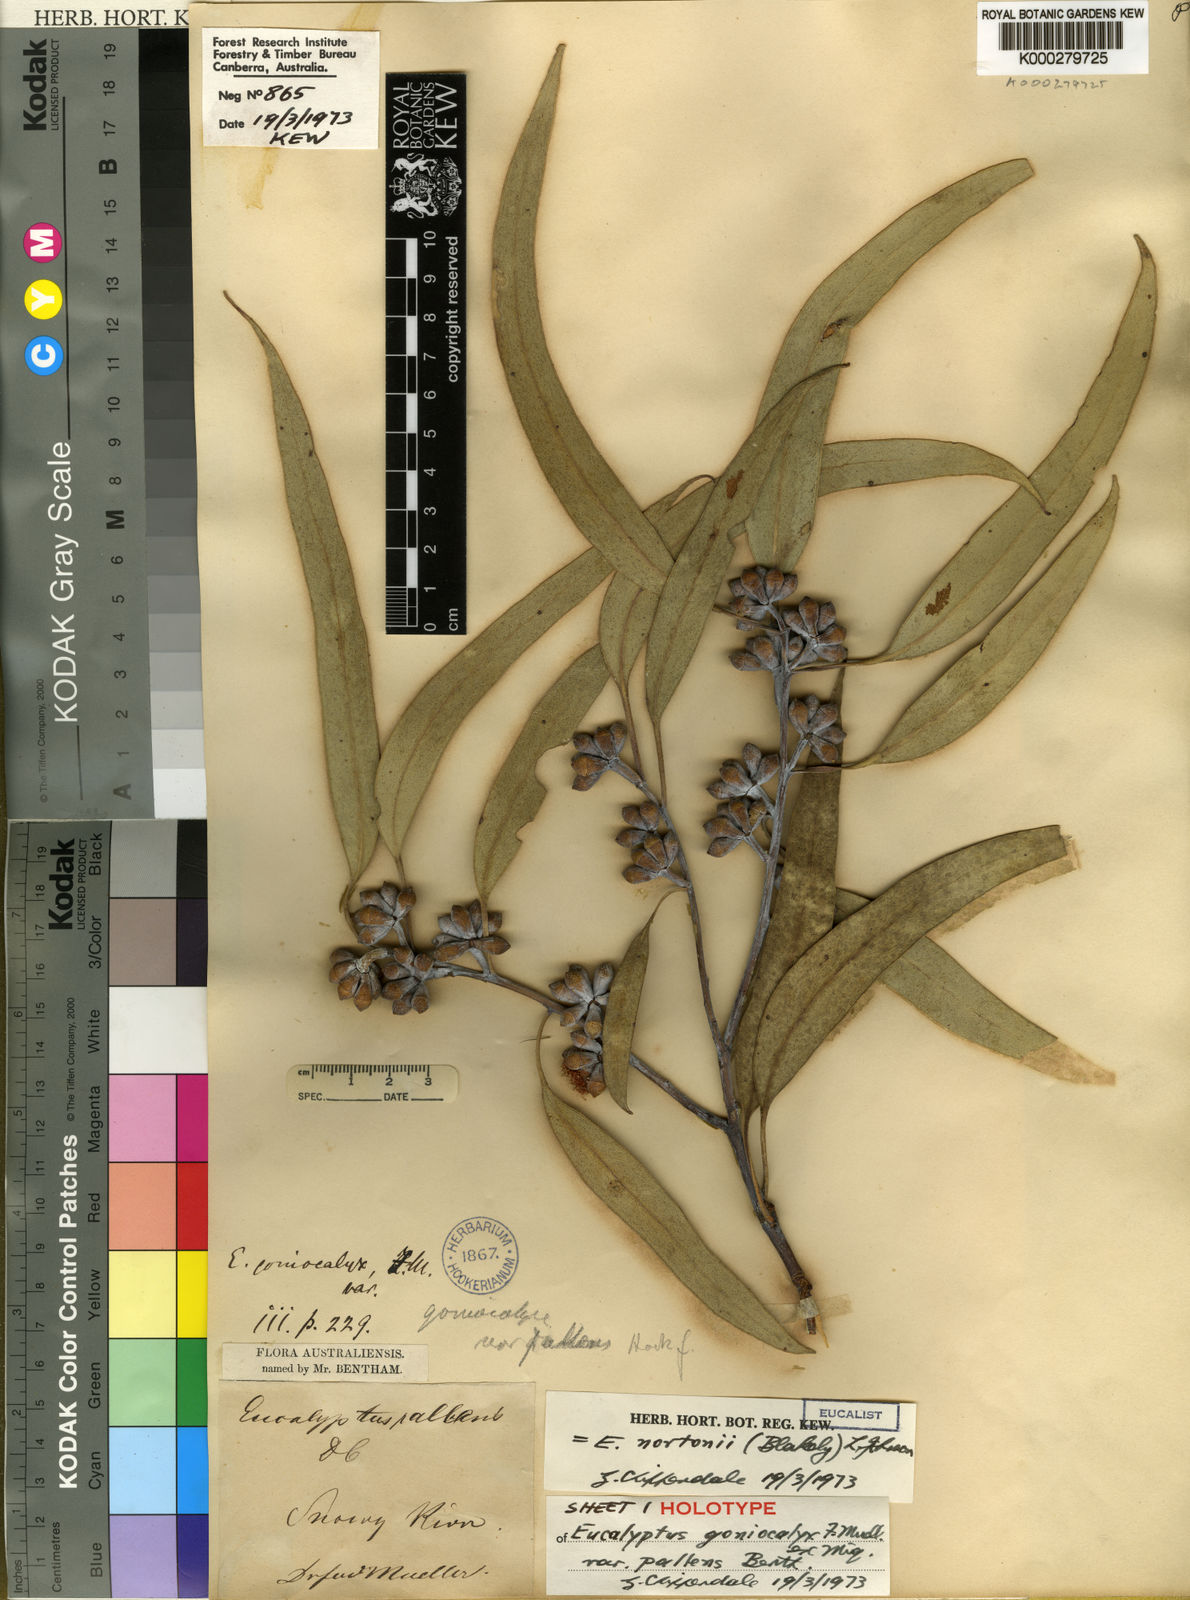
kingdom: Plantae
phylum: Tracheophyta
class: Magnoliopsida
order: Myrtales
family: Myrtaceae
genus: Eucalyptus
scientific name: Eucalyptus nortonii
